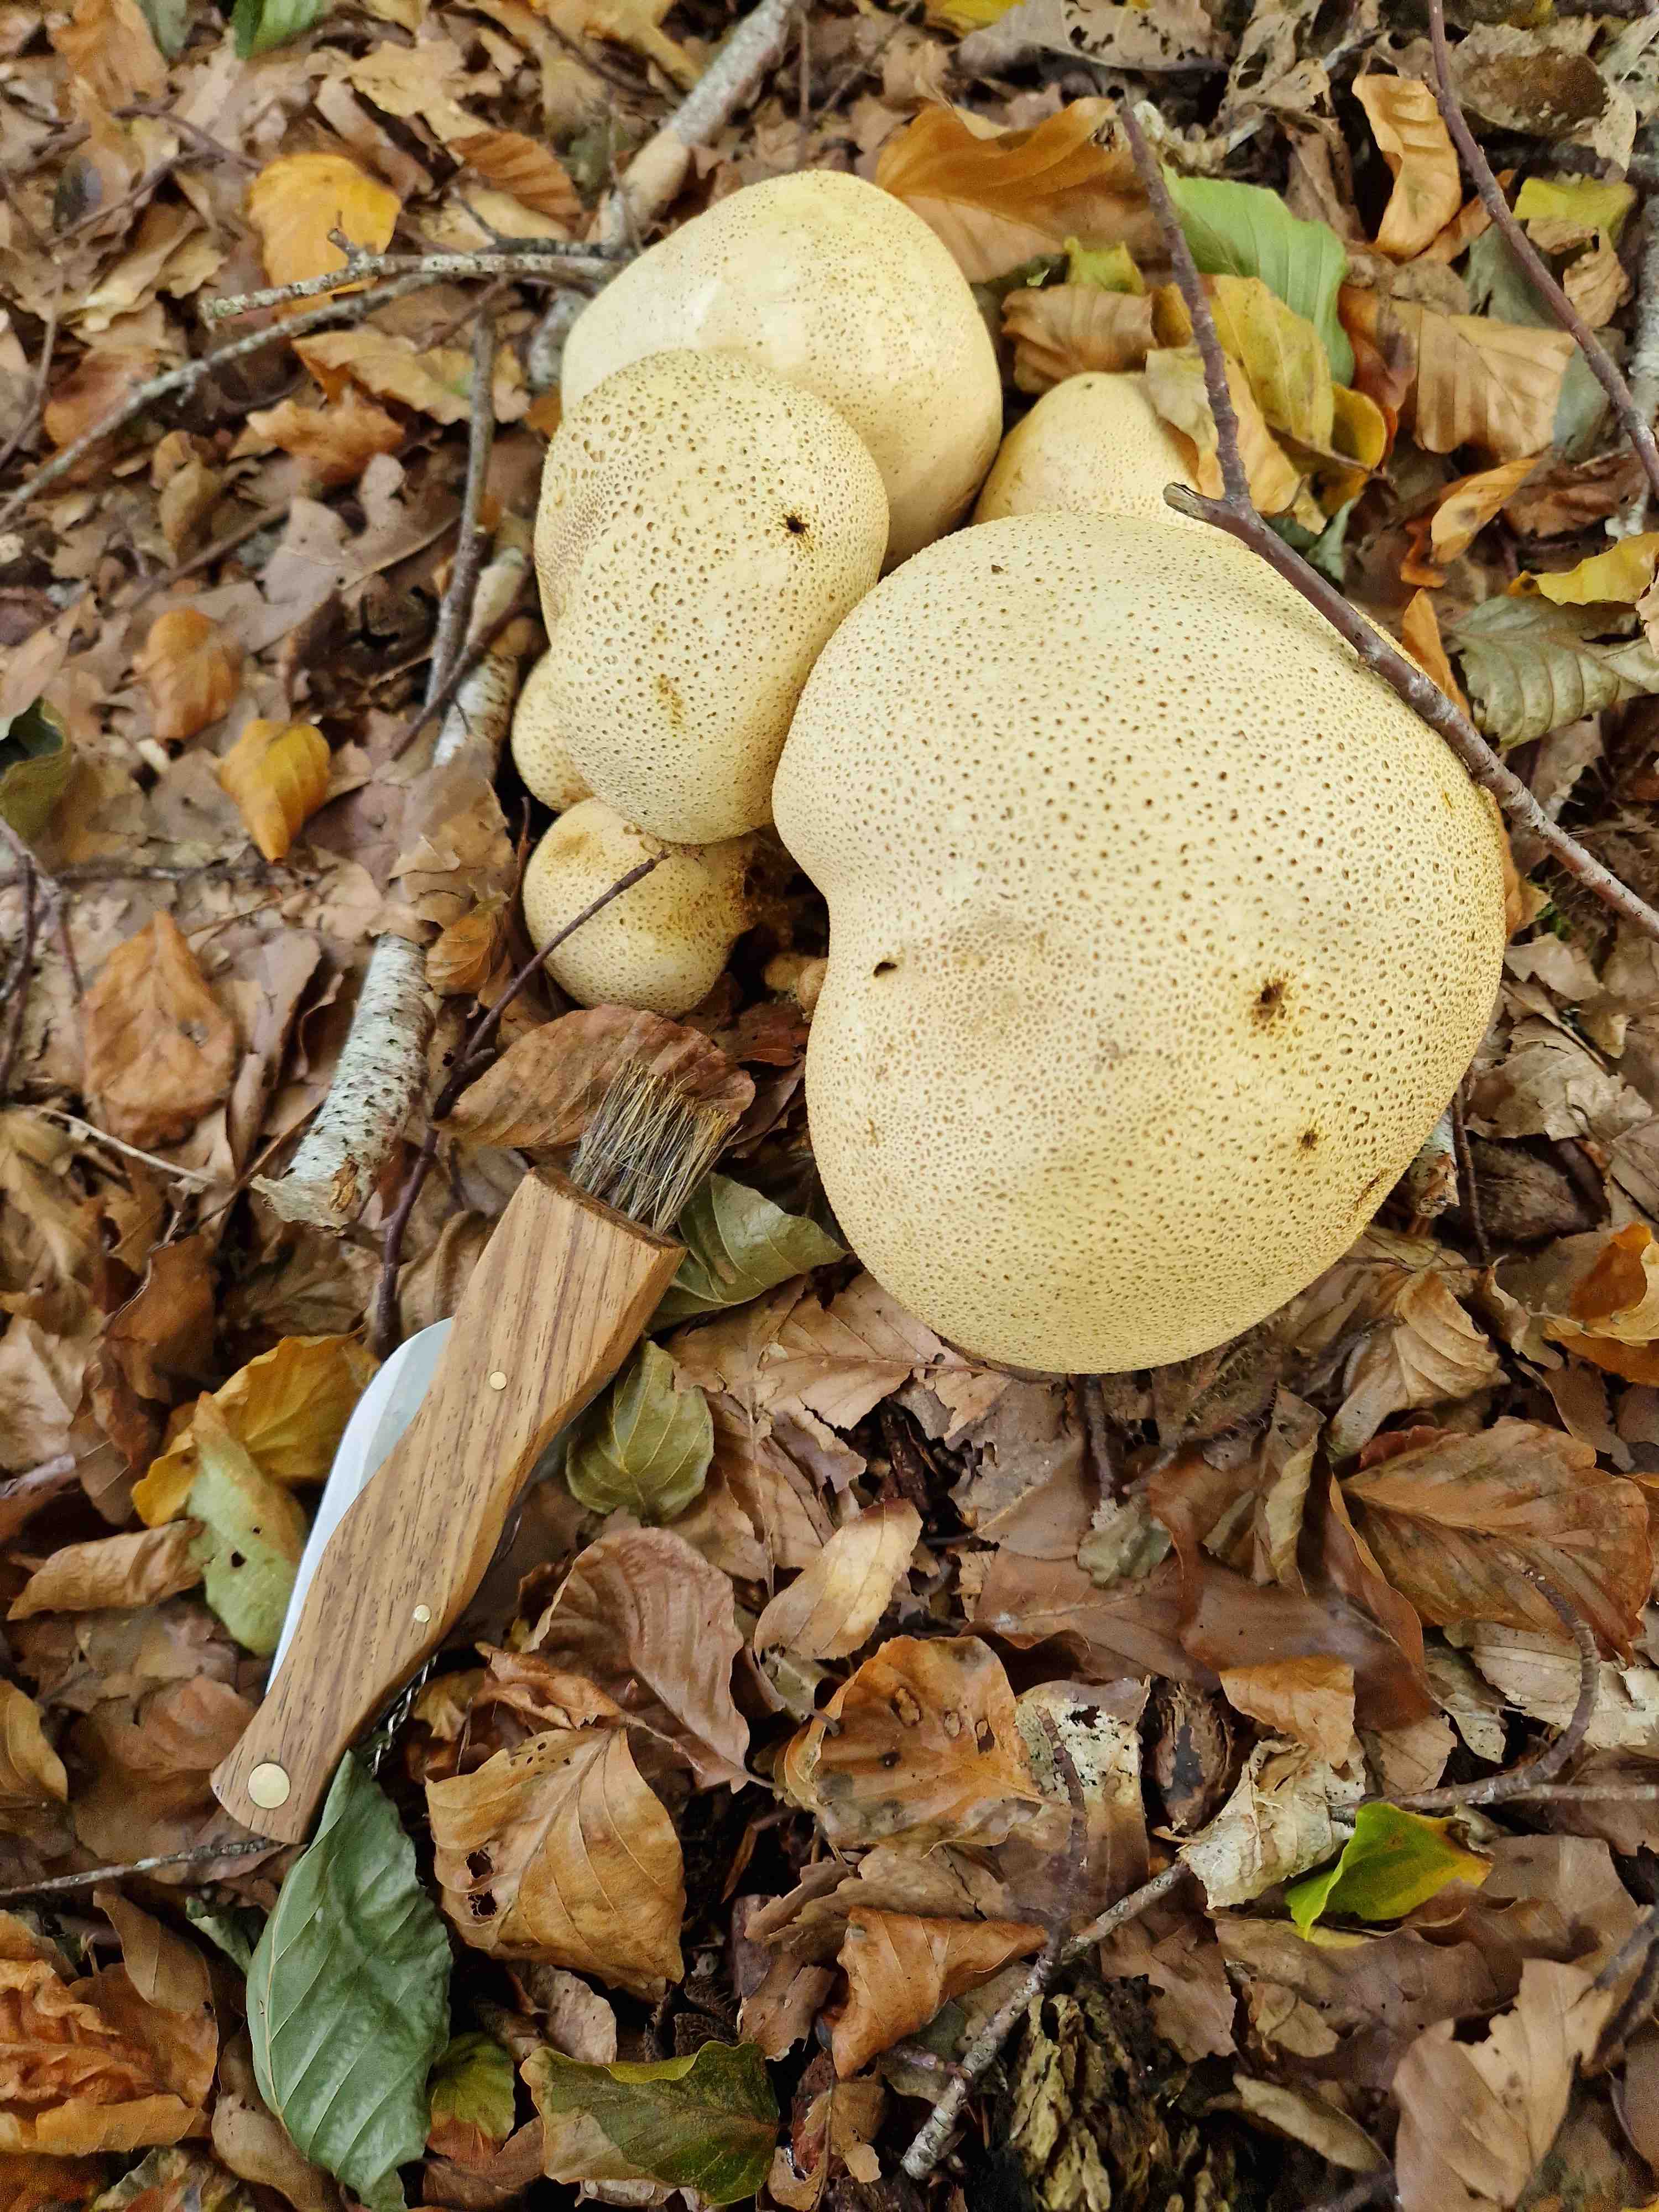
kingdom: Fungi
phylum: Basidiomycota
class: Agaricomycetes
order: Boletales
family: Sclerodermataceae
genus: Scleroderma
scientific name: Scleroderma citrinum
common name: almindelig bruskbold
